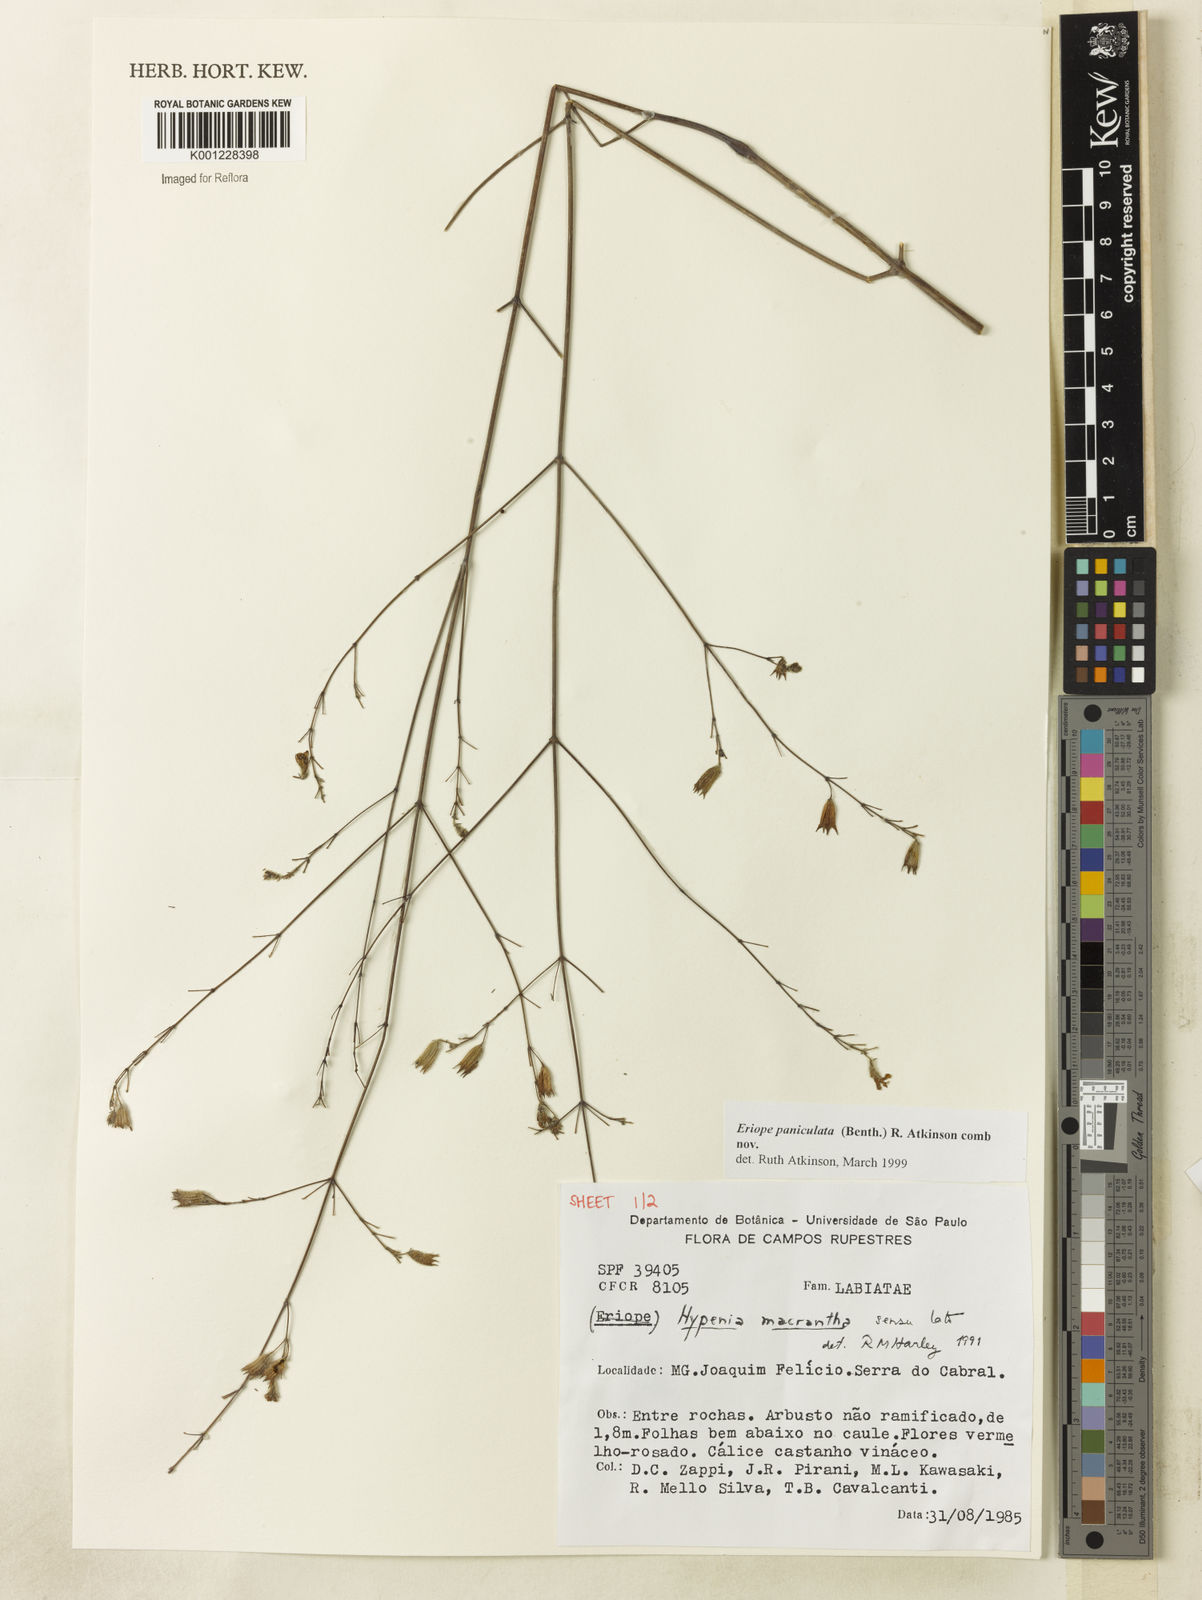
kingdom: Plantae
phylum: Tracheophyta
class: Magnoliopsida
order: Lamiales
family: Lamiaceae
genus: Hypenia
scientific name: Hypenia paniculata
